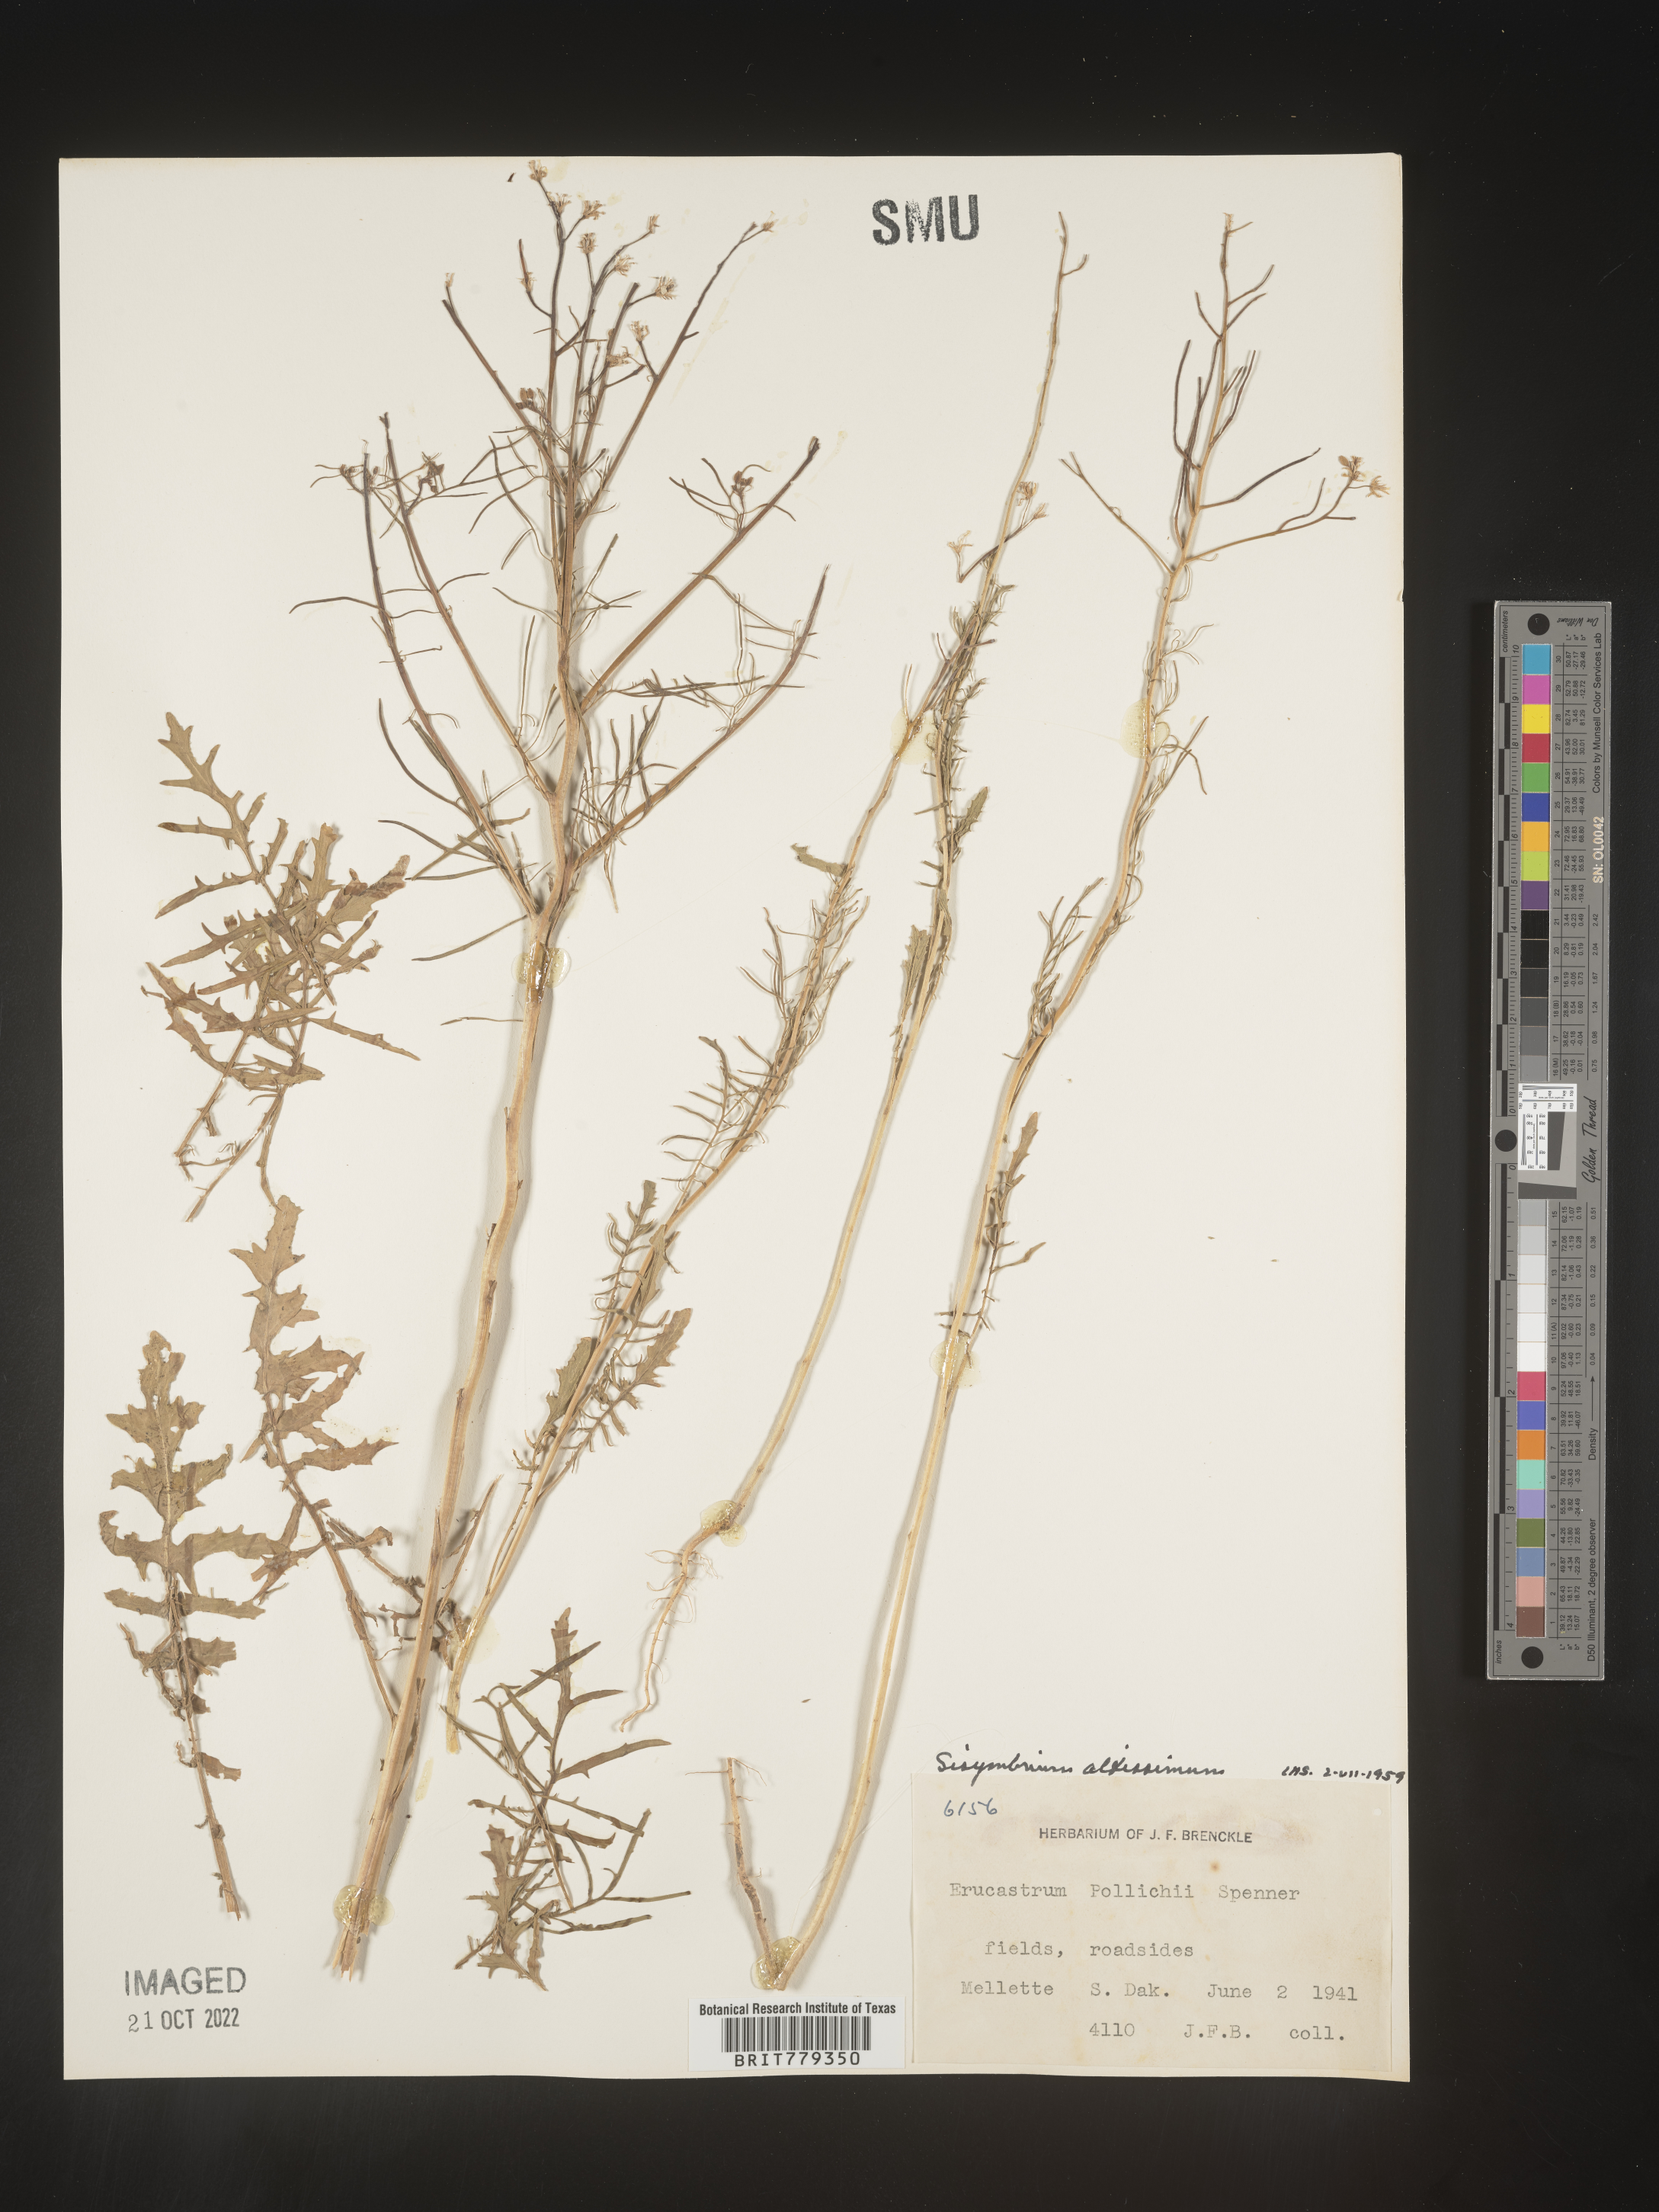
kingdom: Plantae
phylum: Tracheophyta
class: Magnoliopsida
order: Brassicales
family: Brassicaceae
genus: Sisymbrium
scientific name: Sisymbrium altissimum
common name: Tall rocket
